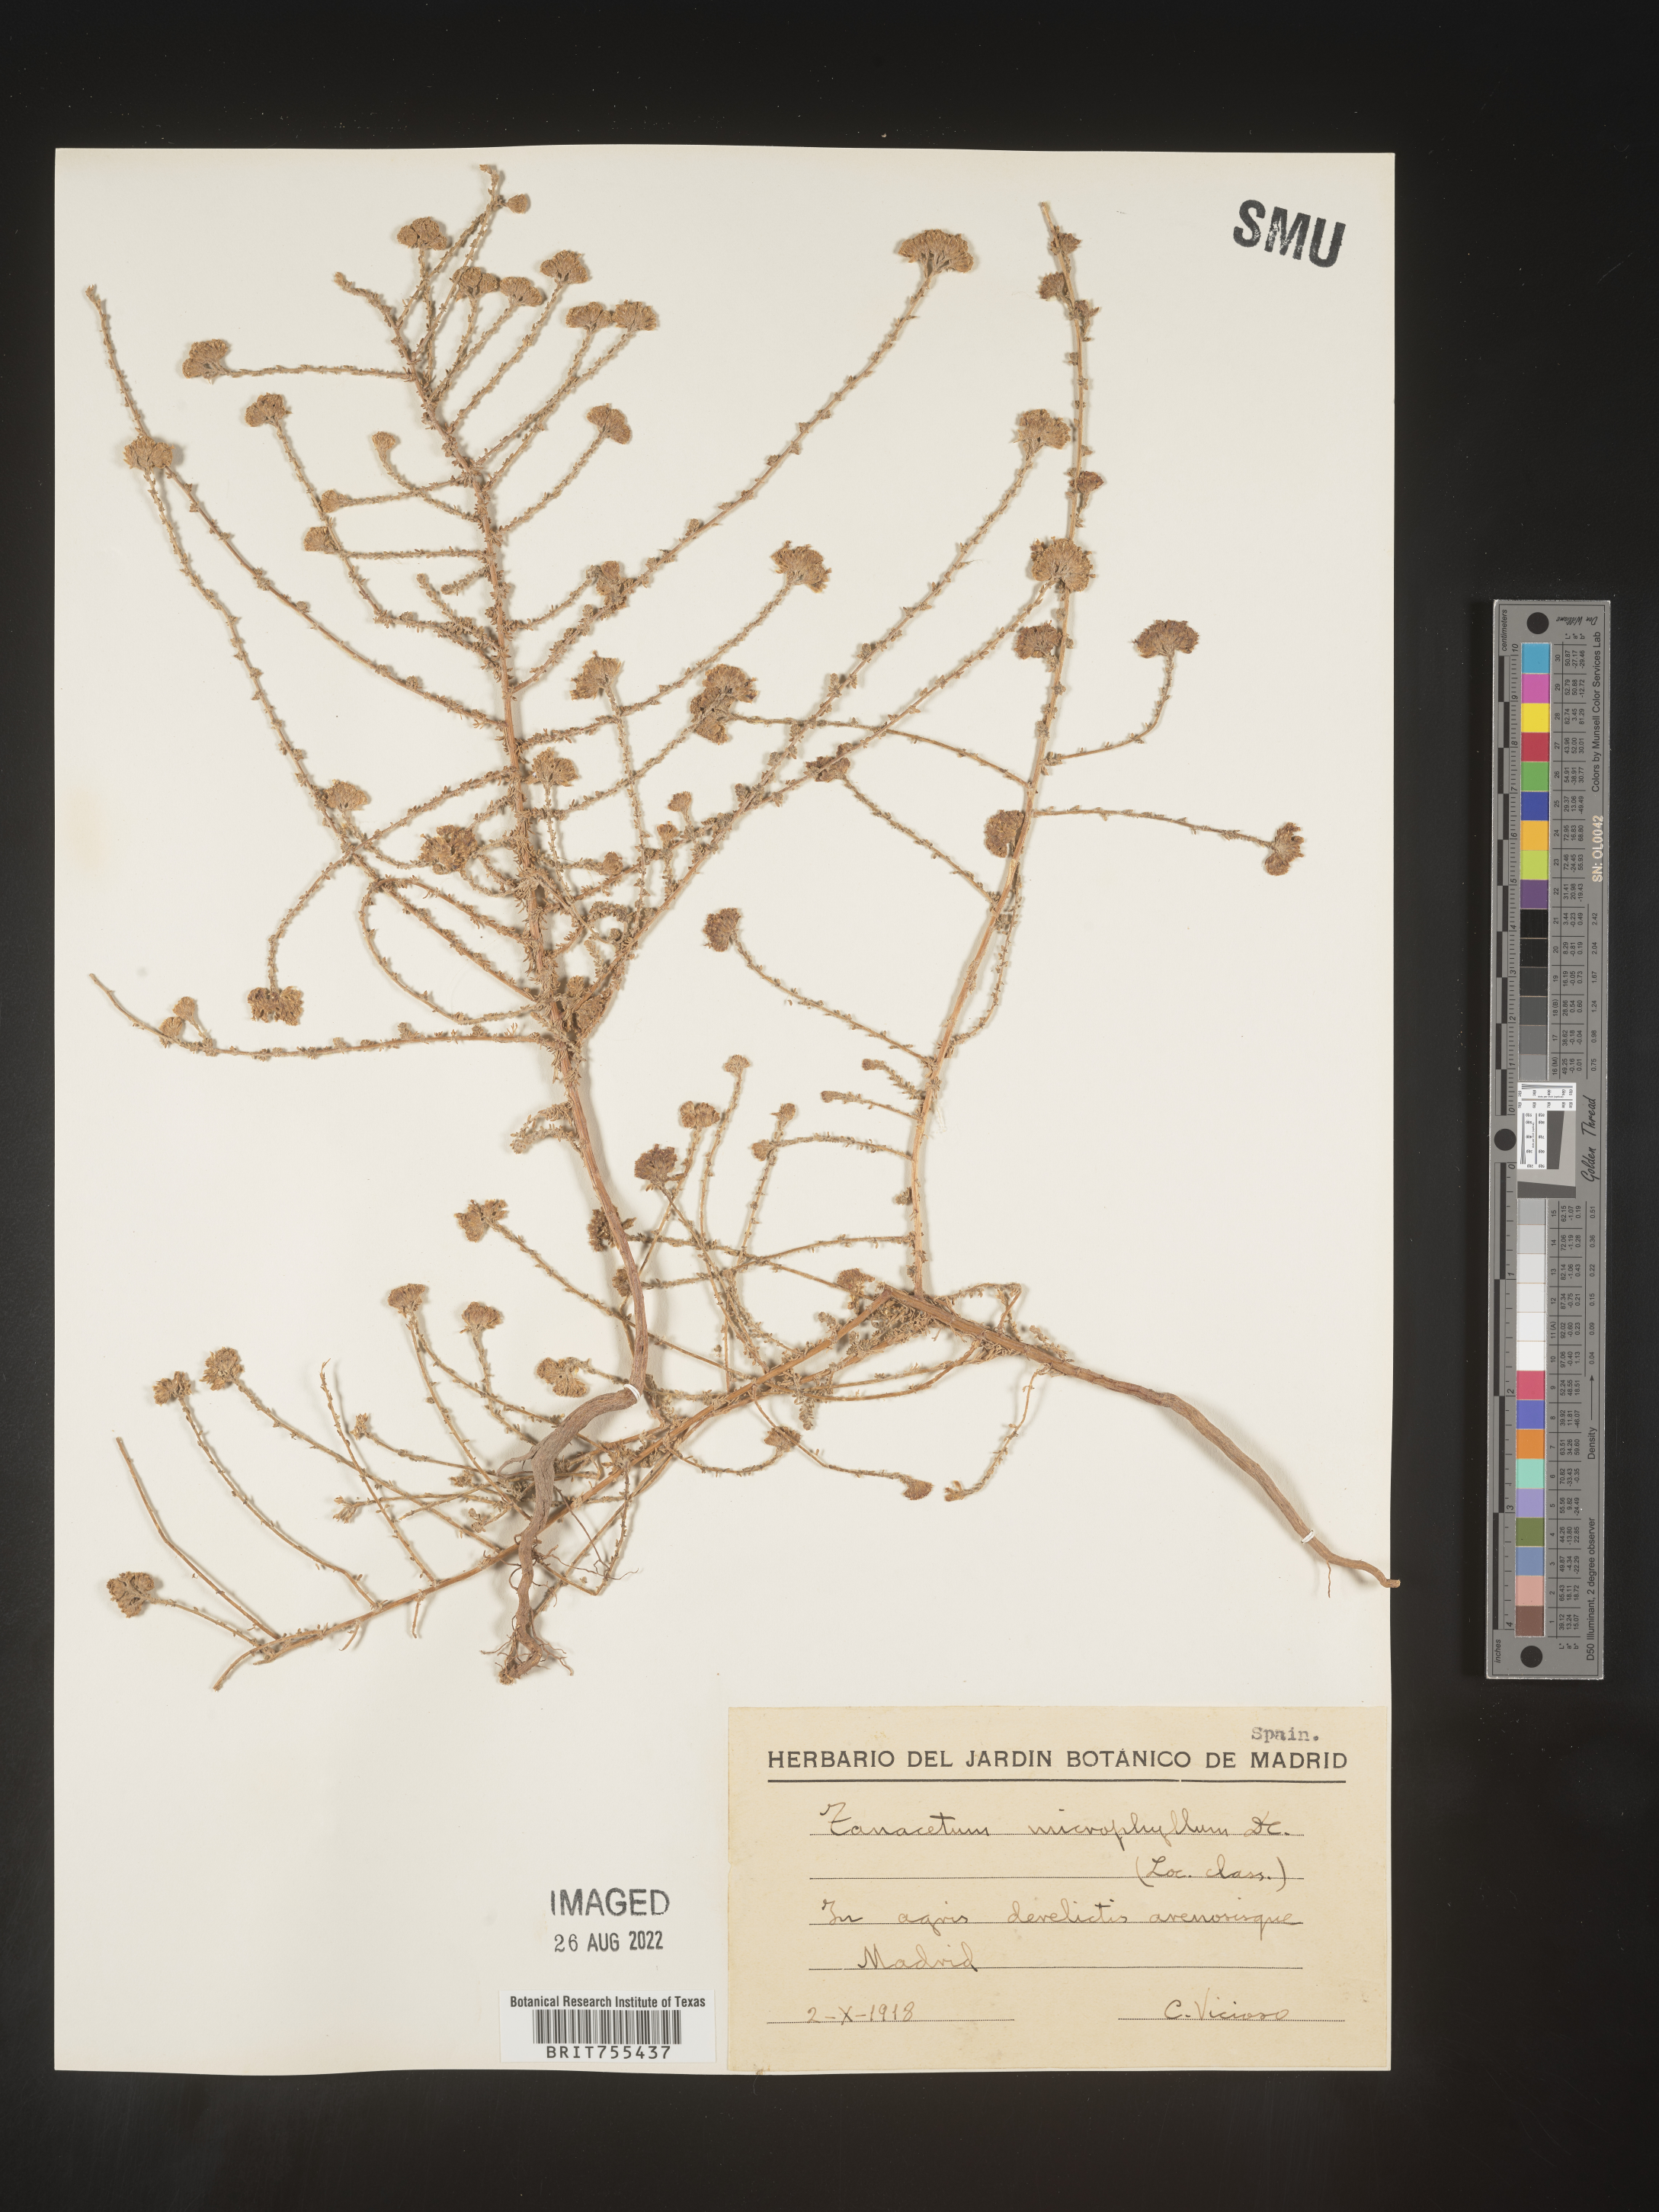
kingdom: Plantae
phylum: Tracheophyta
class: Magnoliopsida
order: Asterales
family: Asteraceae
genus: Tanacetum
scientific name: Tanacetum
